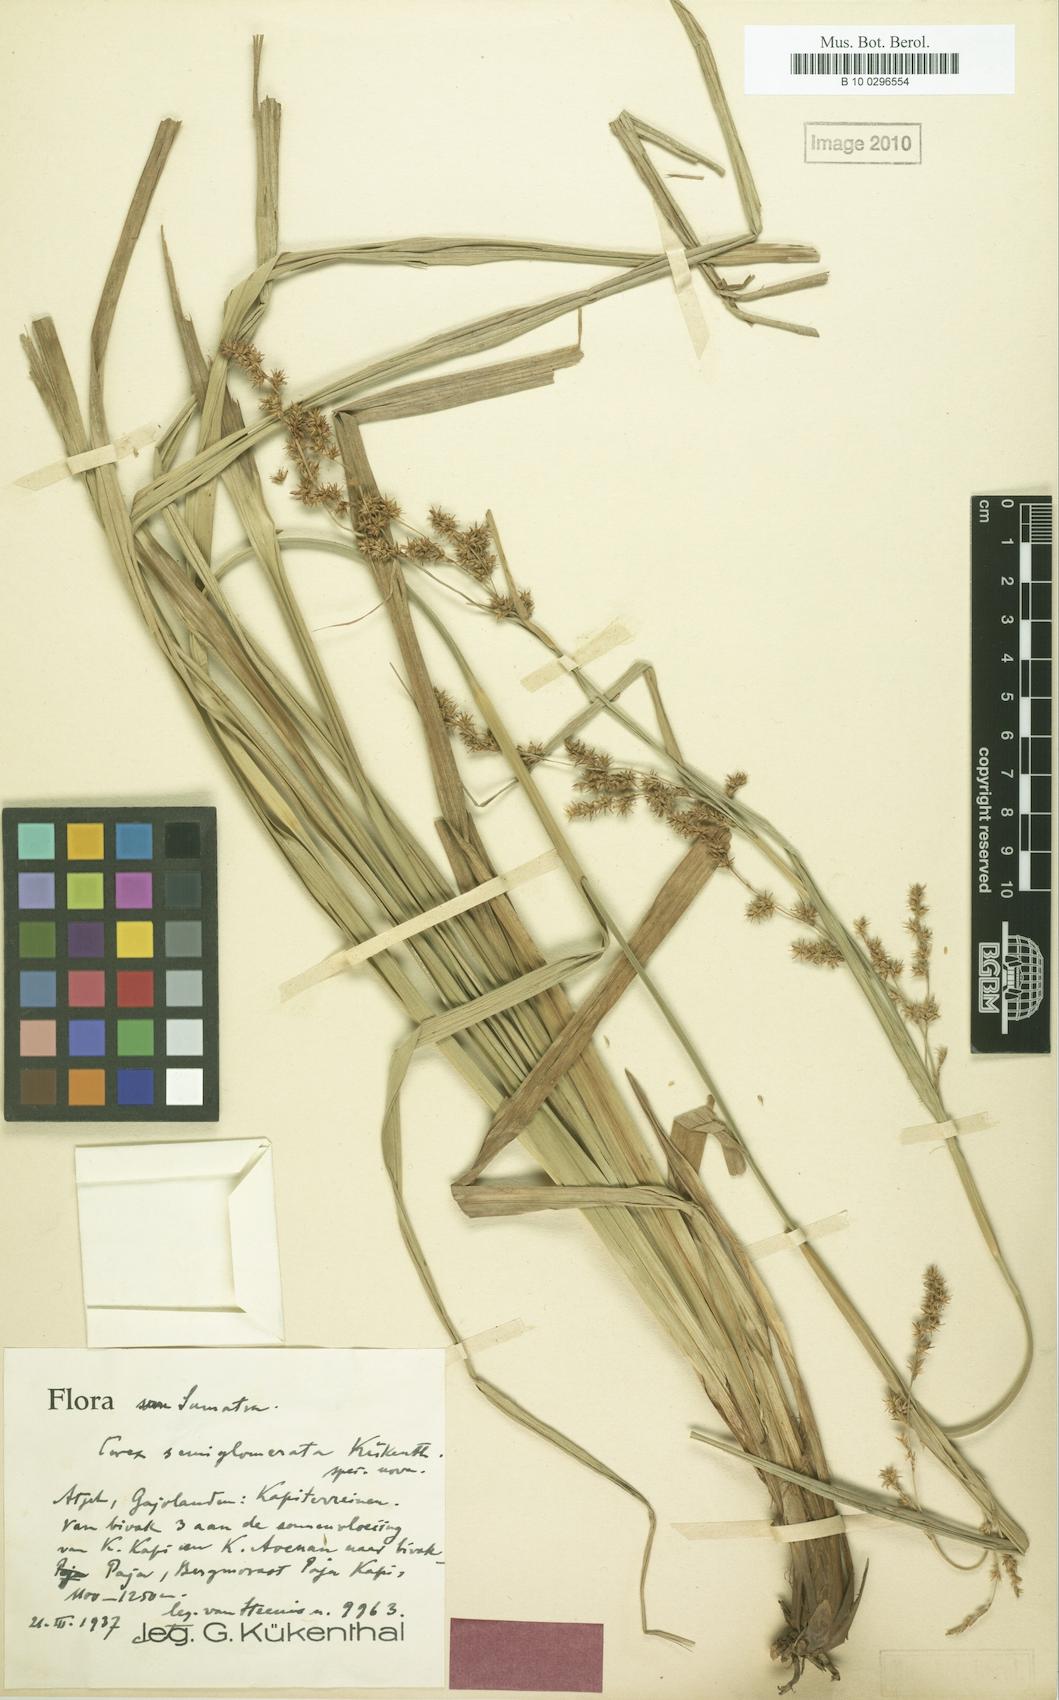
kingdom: Plantae
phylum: Tracheophyta
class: Liliopsida
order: Poales
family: Cyperaceae
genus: Carex
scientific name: Carex rafflesiana
